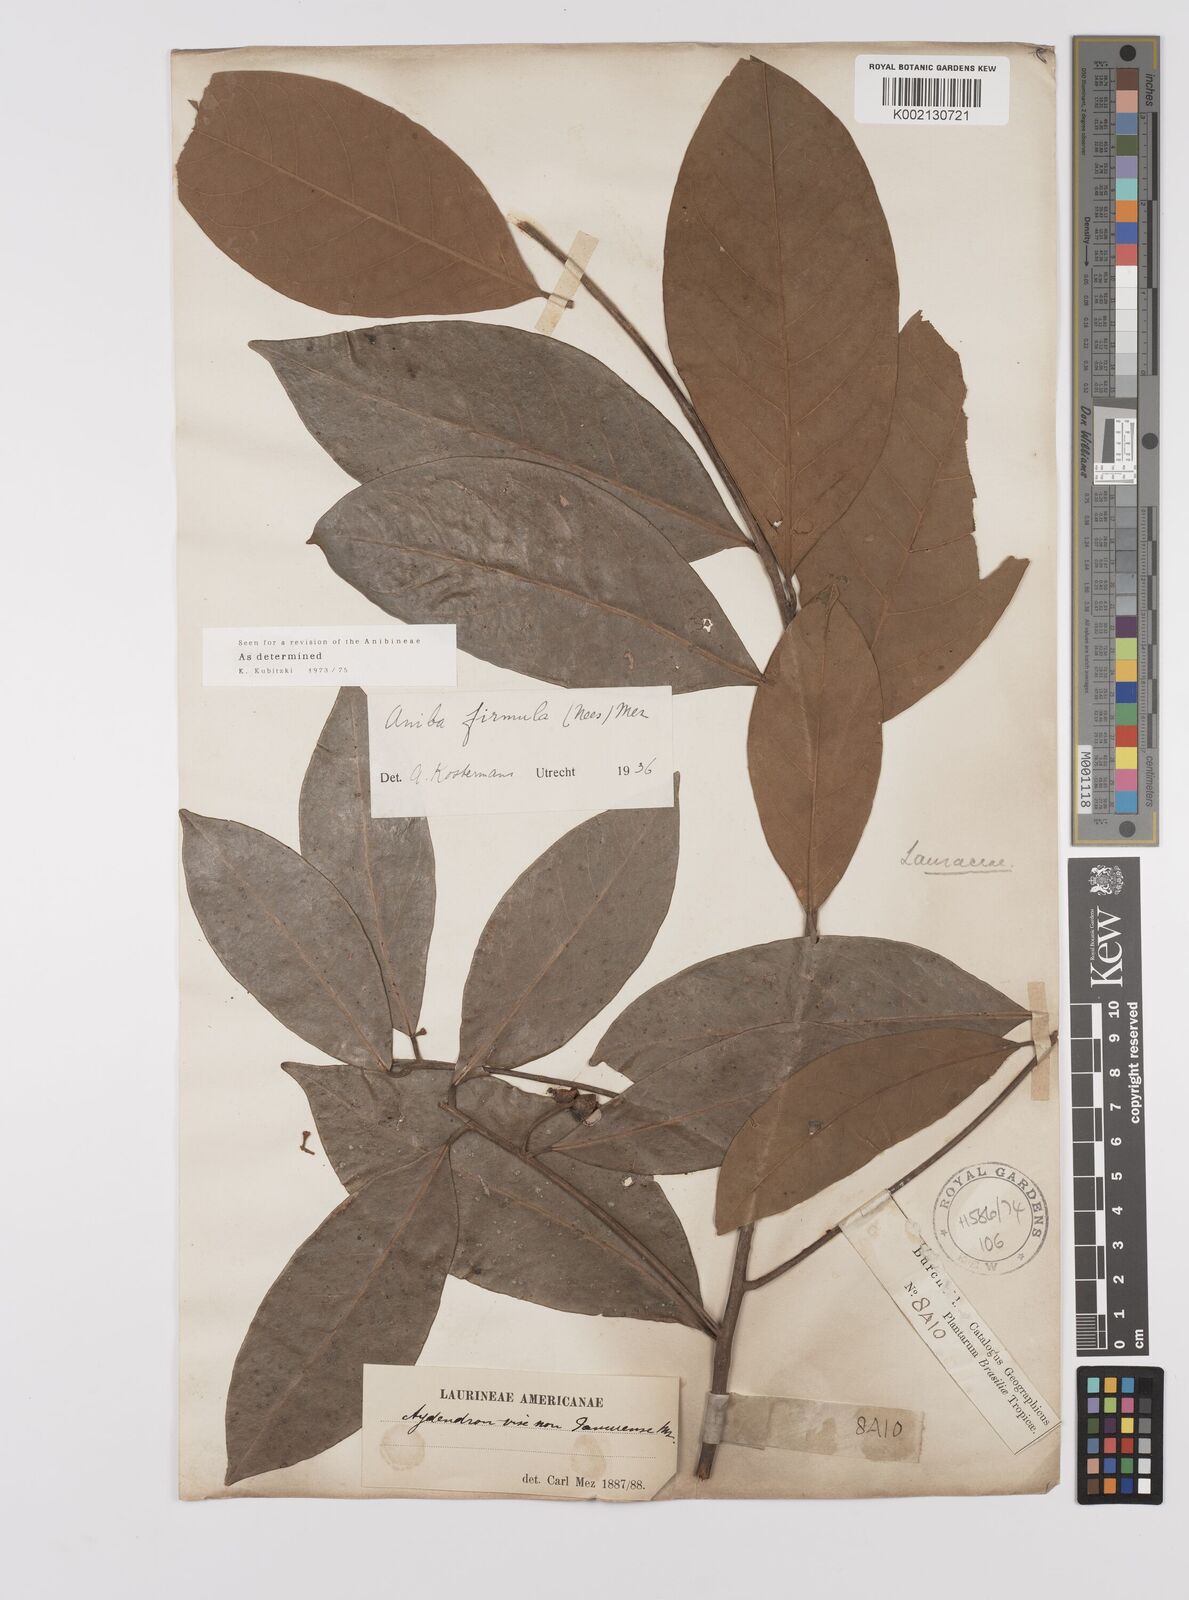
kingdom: Plantae
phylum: Tracheophyta
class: Magnoliopsida
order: Laurales
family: Lauraceae
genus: Aniba
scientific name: Aniba firmula
